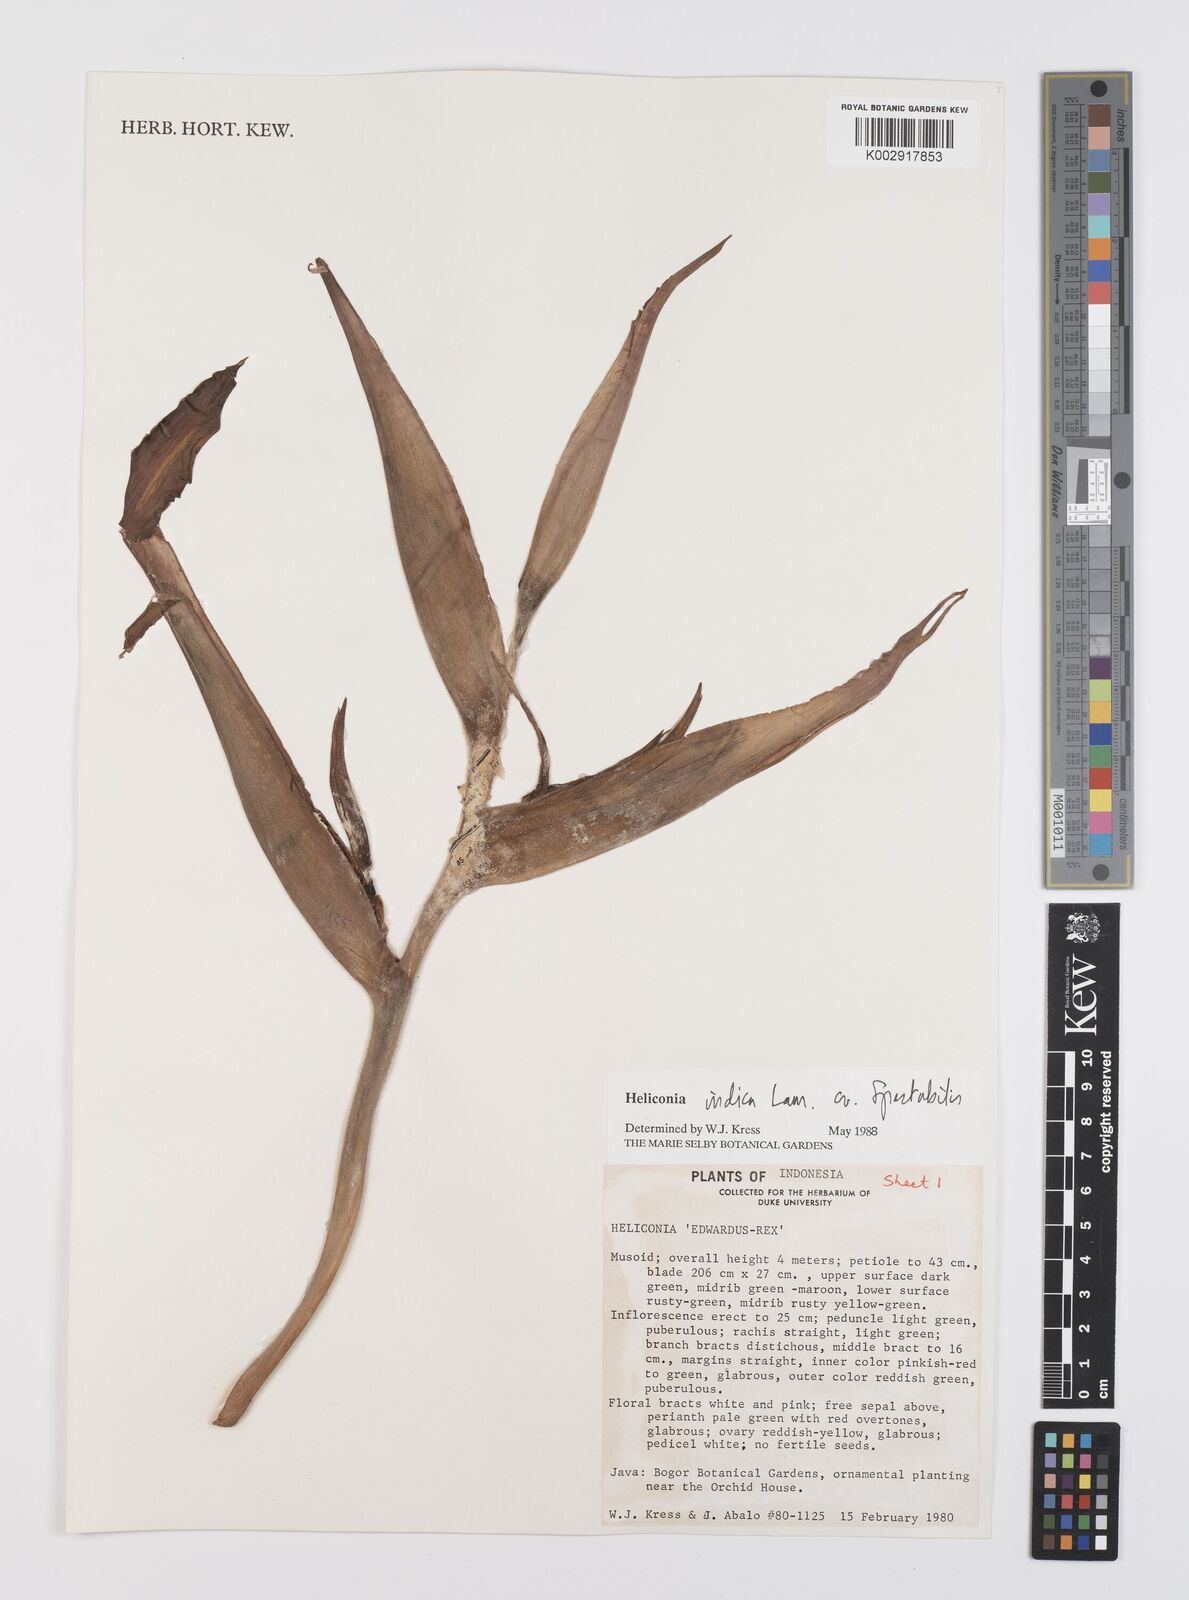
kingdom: Plantae
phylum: Tracheophyta
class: Liliopsida
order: Zingiberales
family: Heliconiaceae
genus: Heliconia
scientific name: Heliconia indica
